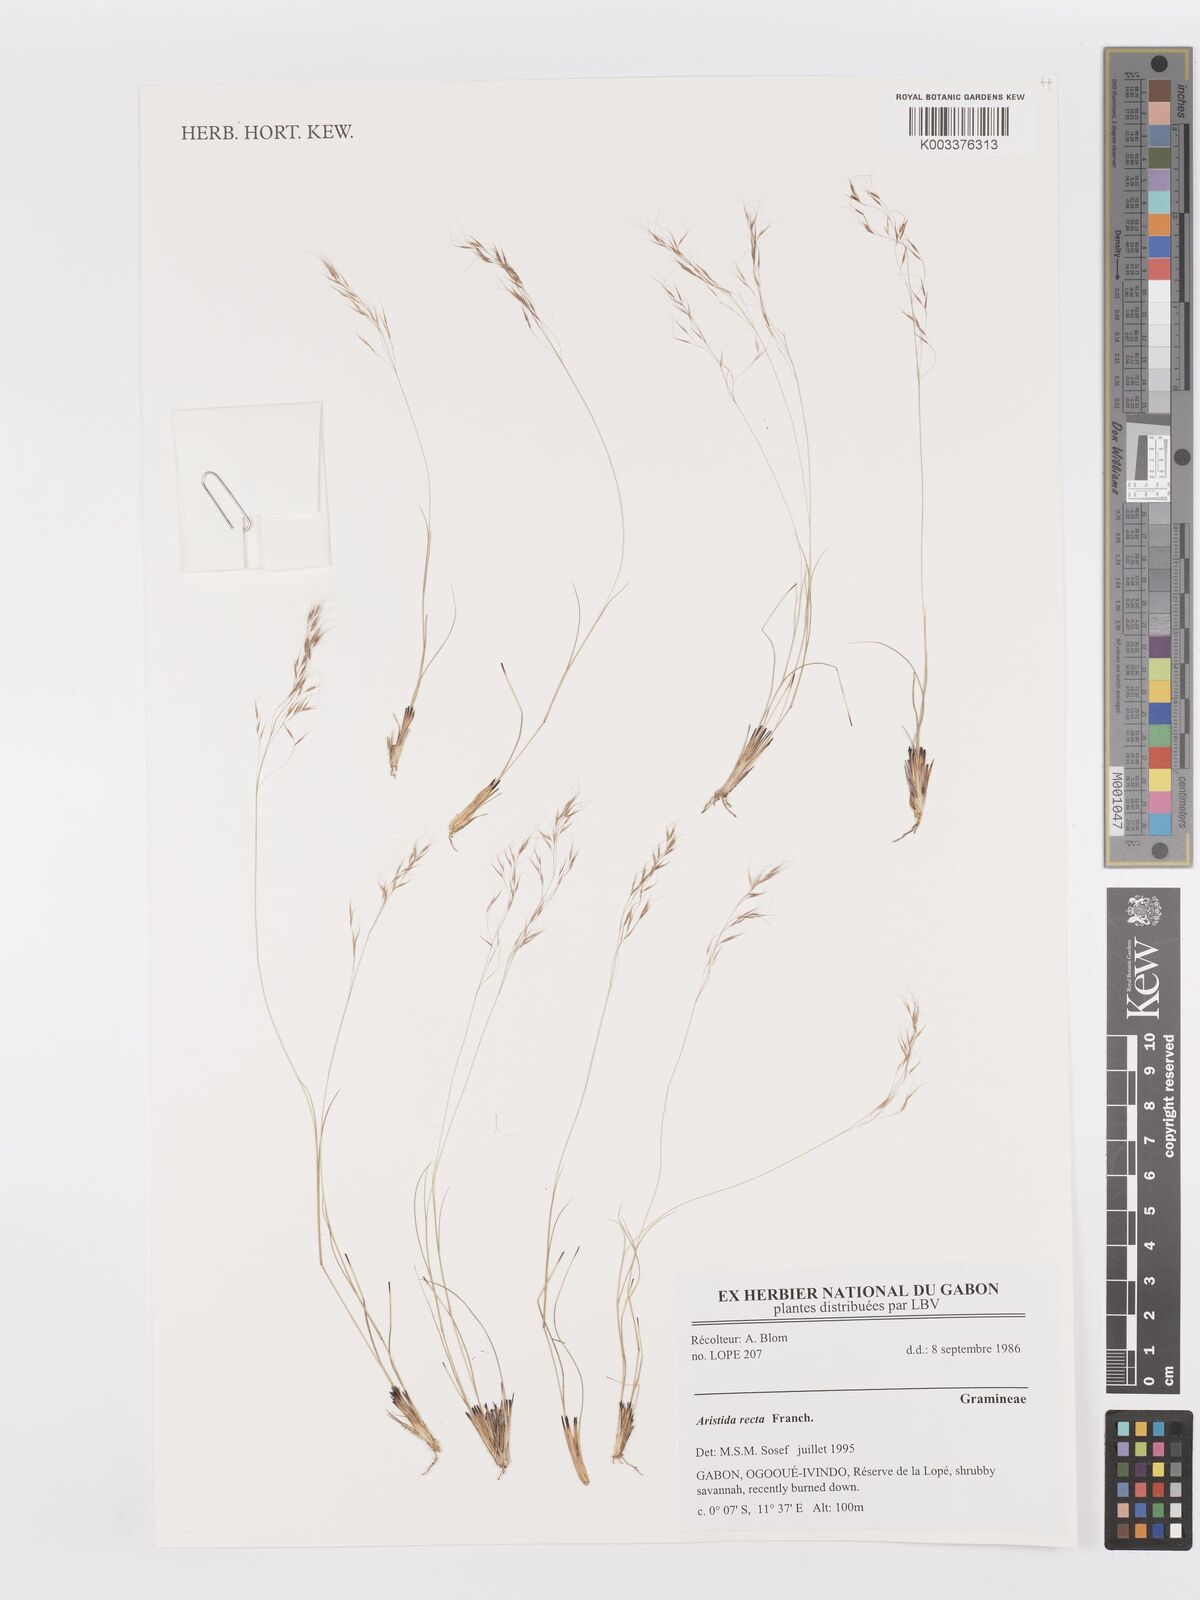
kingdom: Plantae
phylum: Tracheophyta
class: Liliopsida
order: Poales
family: Poaceae
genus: Aristida
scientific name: Aristida recta
